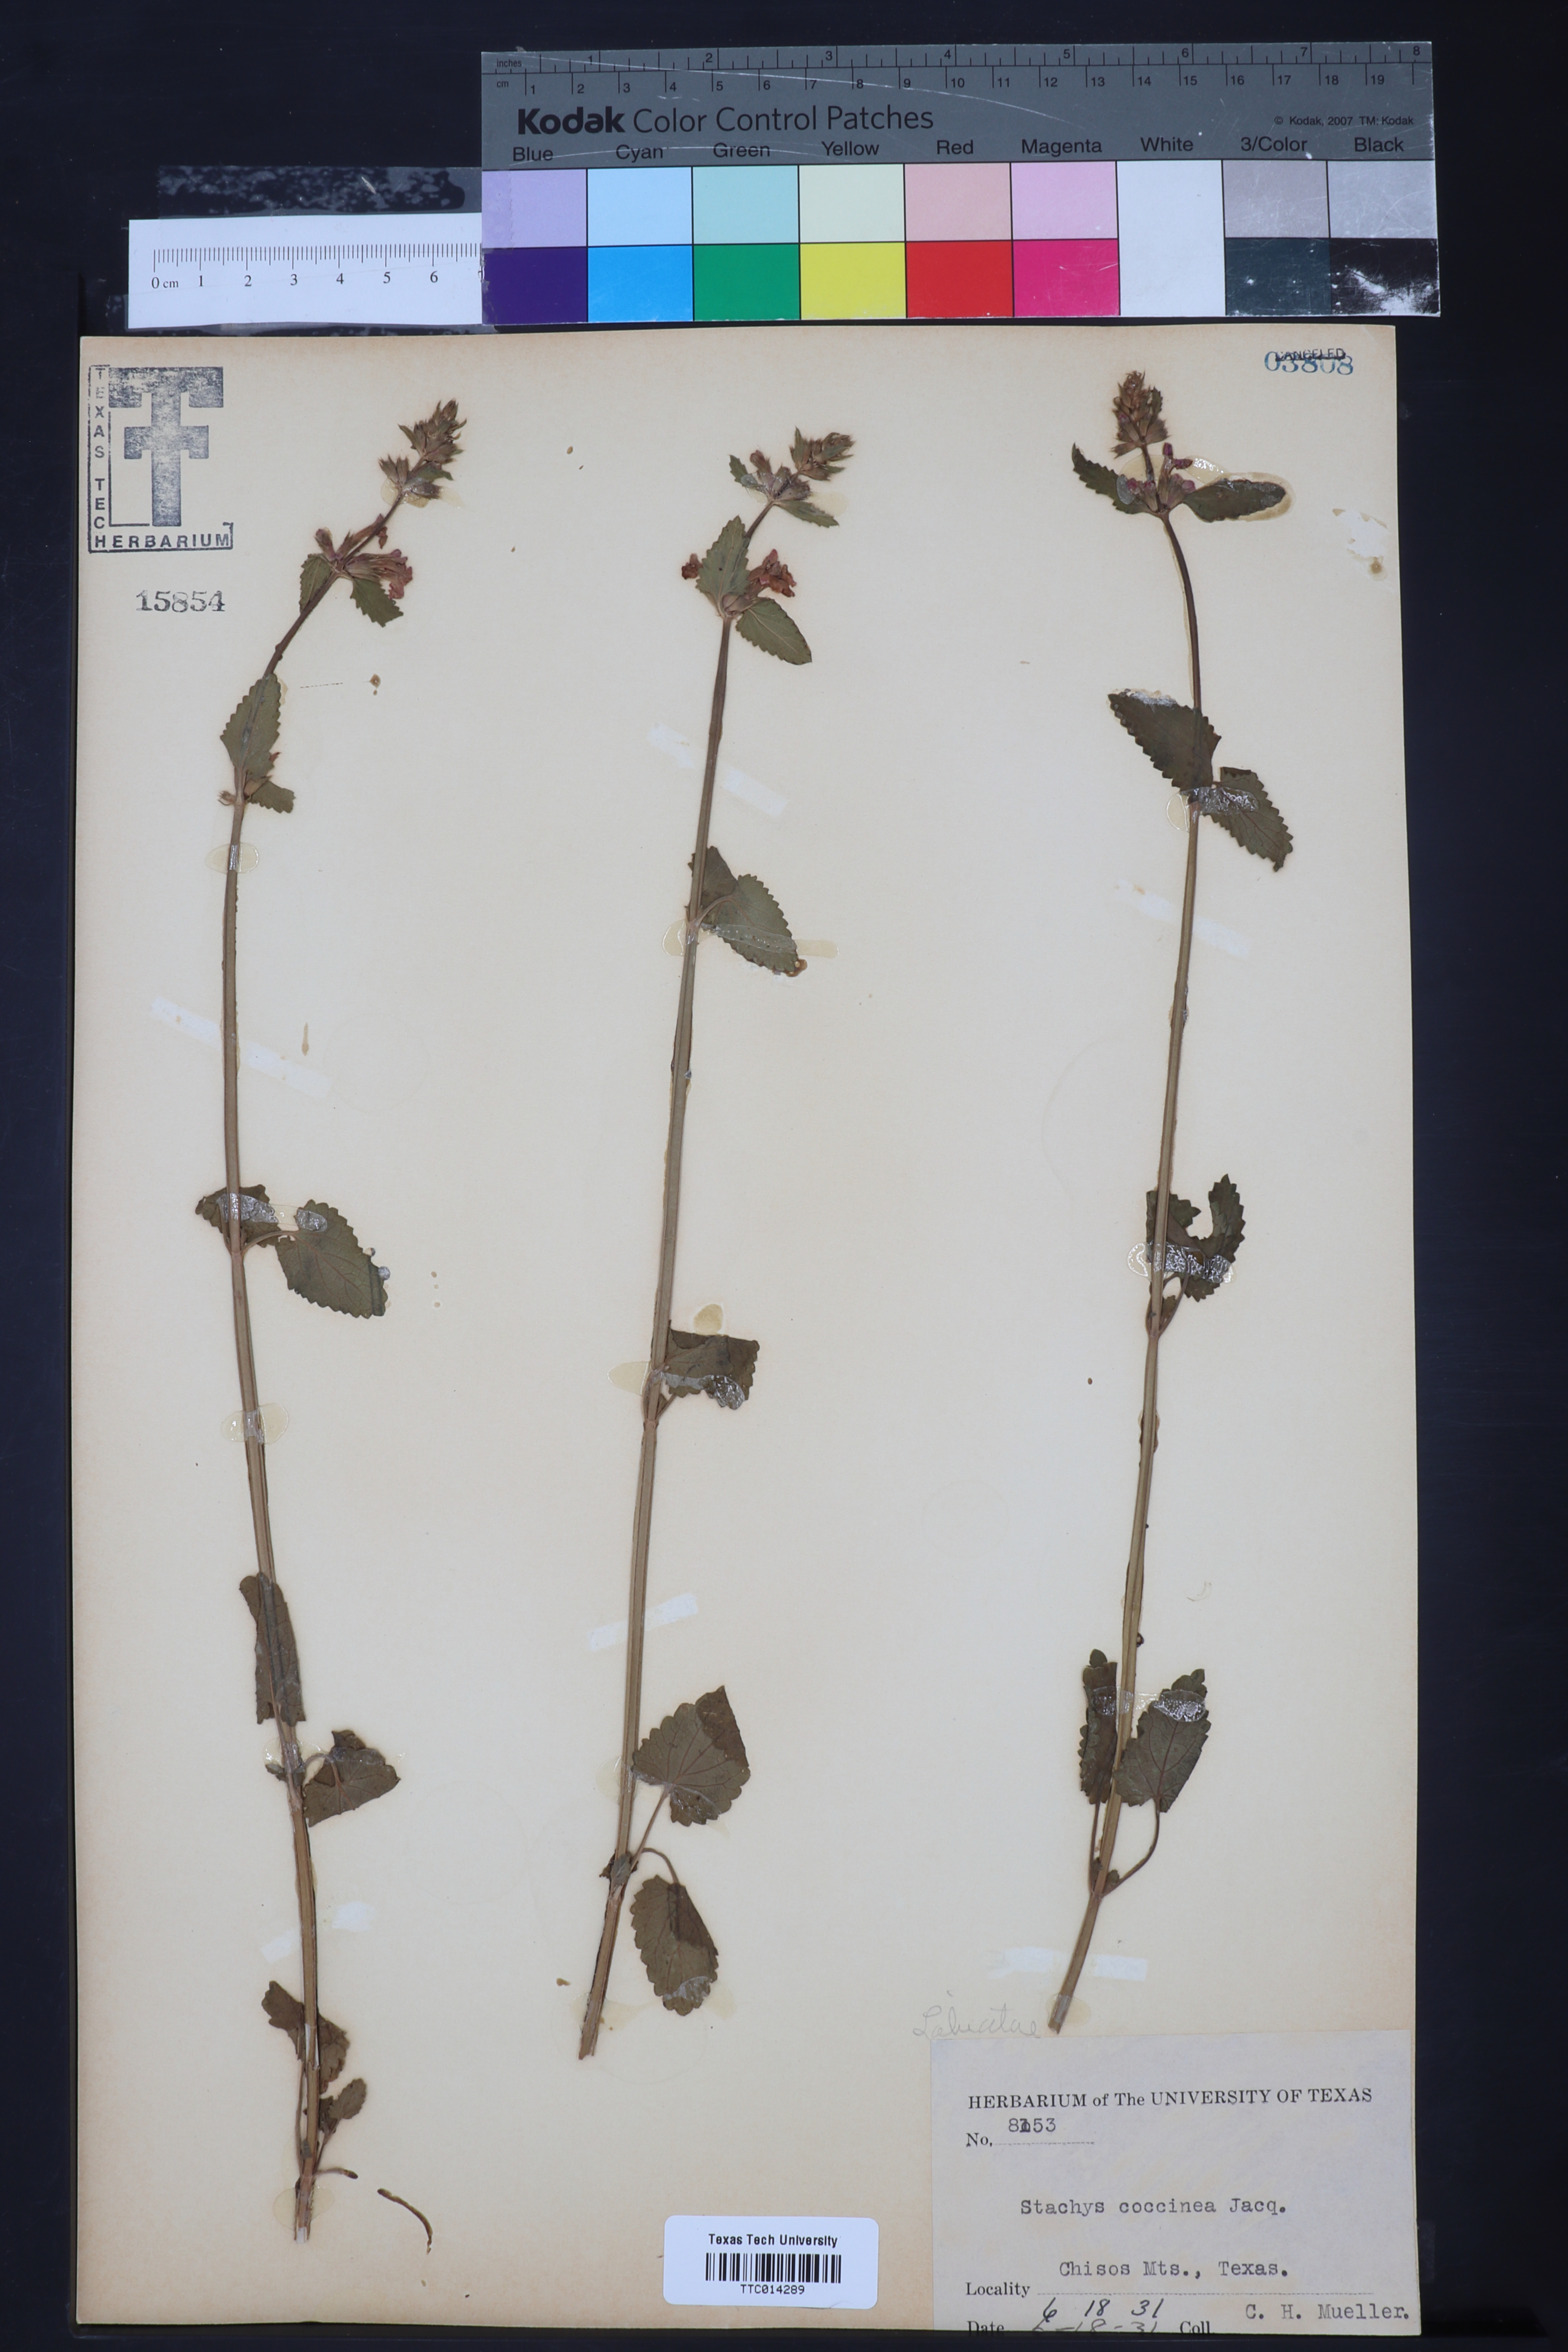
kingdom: Plantae
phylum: Tracheophyta
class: Magnoliopsida
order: Lamiales
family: Lamiaceae
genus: Stachys
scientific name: Stachys coccinea
